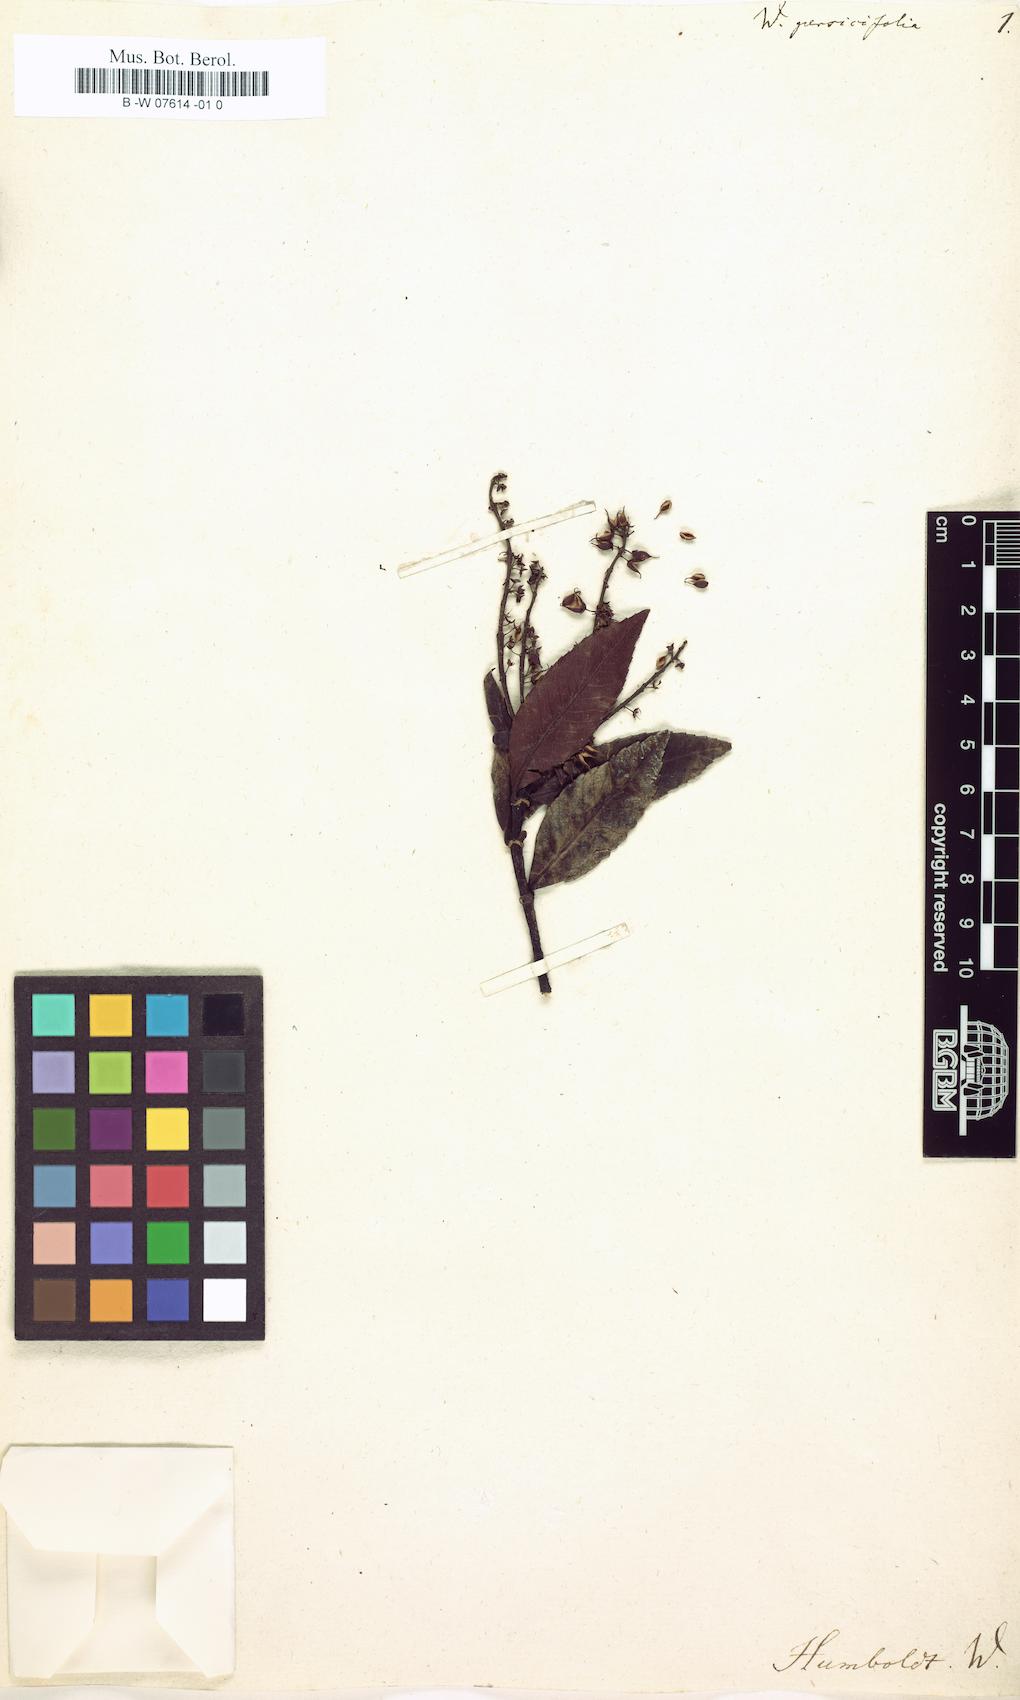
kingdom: Plantae
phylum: Tracheophyta
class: Magnoliopsida
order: Oxalidales
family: Cunoniaceae
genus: Weinmannia
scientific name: Weinmannia
